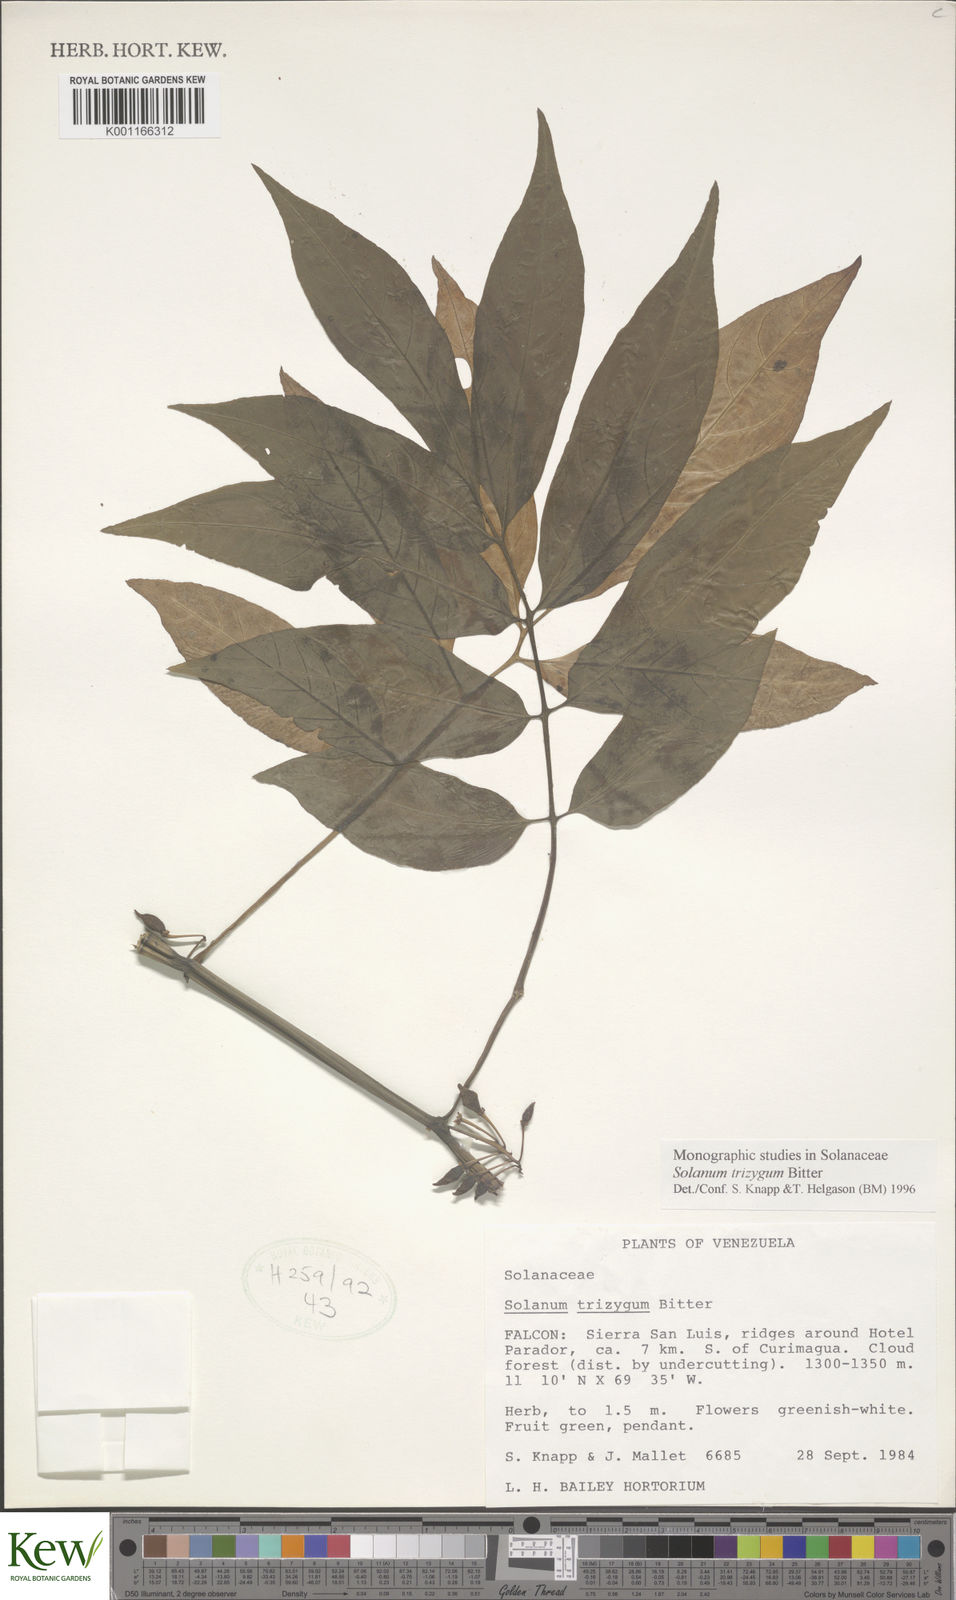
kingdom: Plantae
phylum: Tracheophyta
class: Magnoliopsida
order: Solanales
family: Solanaceae
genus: Solanum
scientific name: Solanum trizygum
